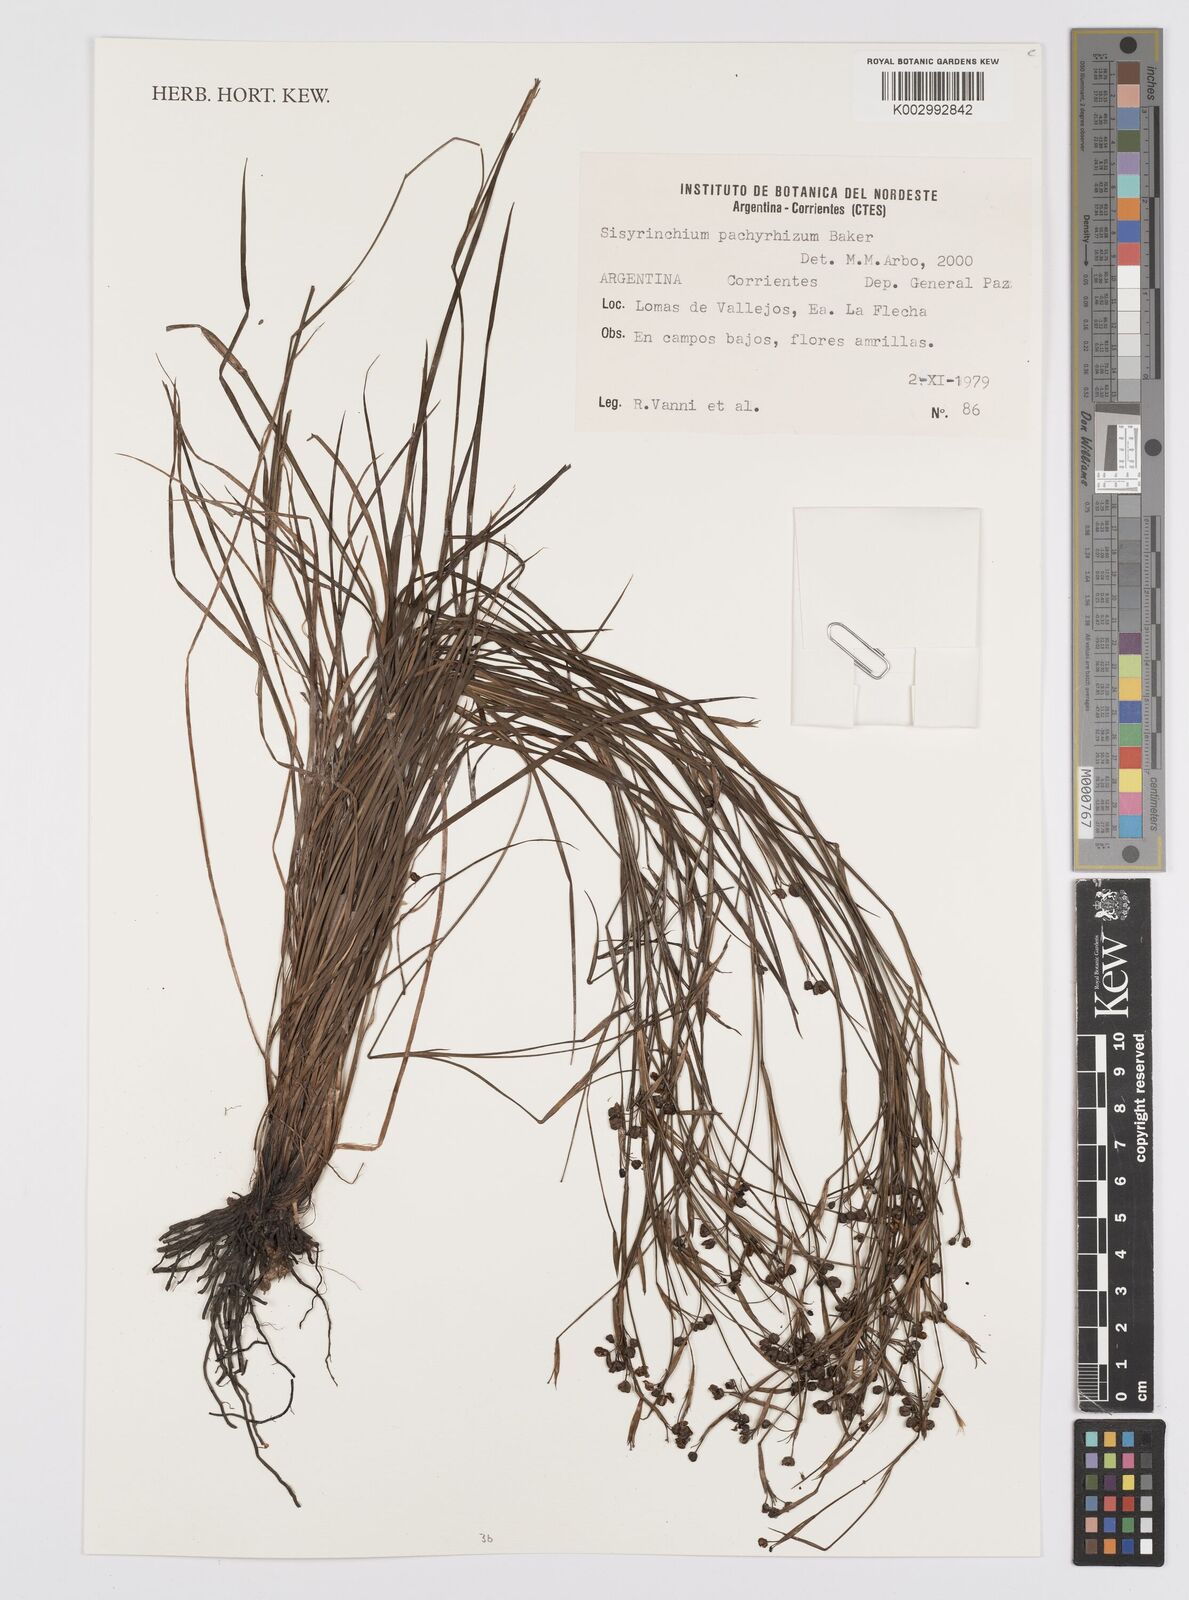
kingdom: Plantae
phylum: Tracheophyta
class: Liliopsida
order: Asparagales
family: Iridaceae
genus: Sisyrinchium
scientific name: Sisyrinchium pachyrhizum
